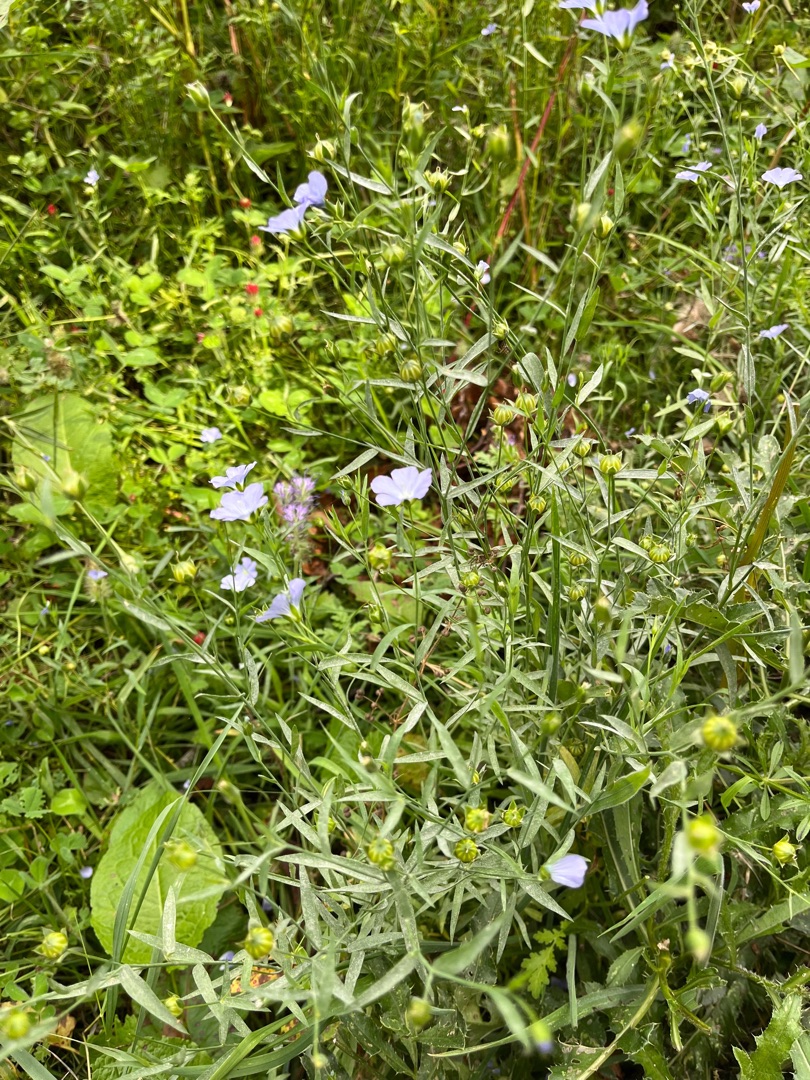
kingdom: Plantae
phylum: Tracheophyta
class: Magnoliopsida
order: Malpighiales
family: Linaceae
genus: Linum
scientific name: Linum usitatissimum
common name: Almindelig hør
